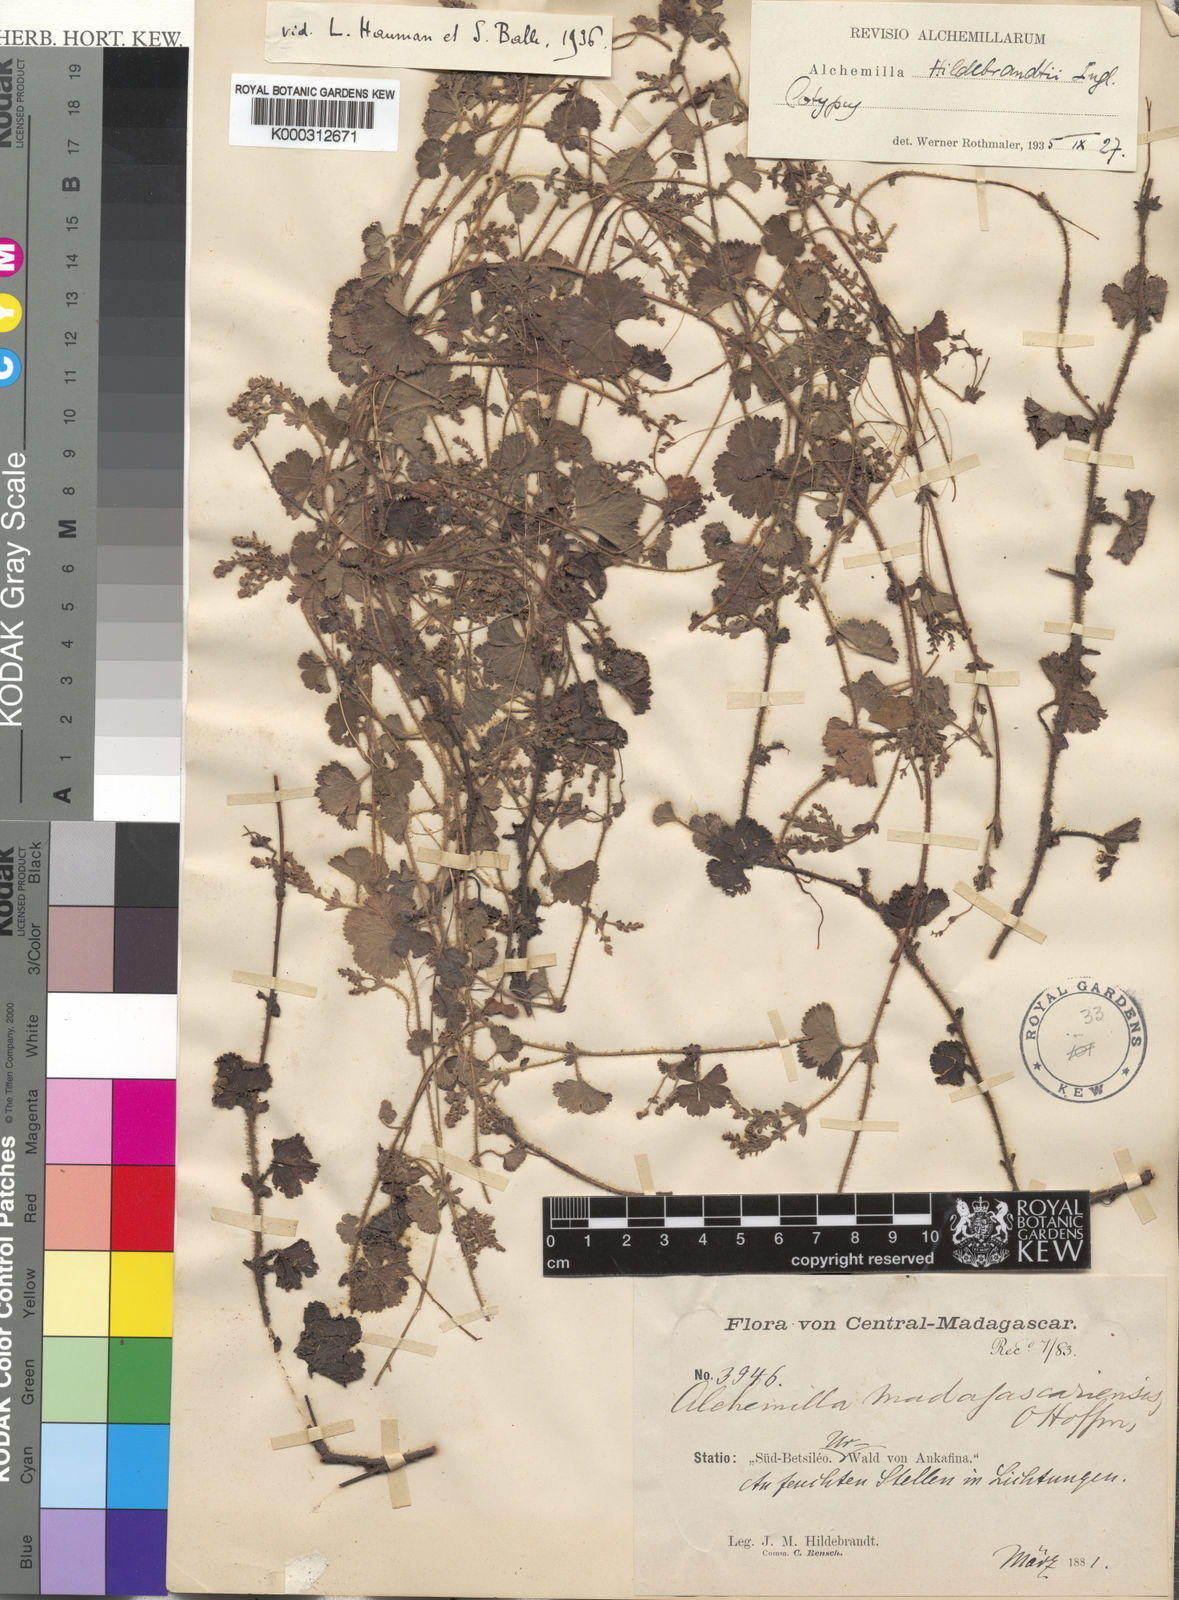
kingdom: Plantae
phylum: Tracheophyta
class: Magnoliopsida
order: Rosales
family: Rosaceae
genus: Alchemilla
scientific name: Alchemilla cryptantha
